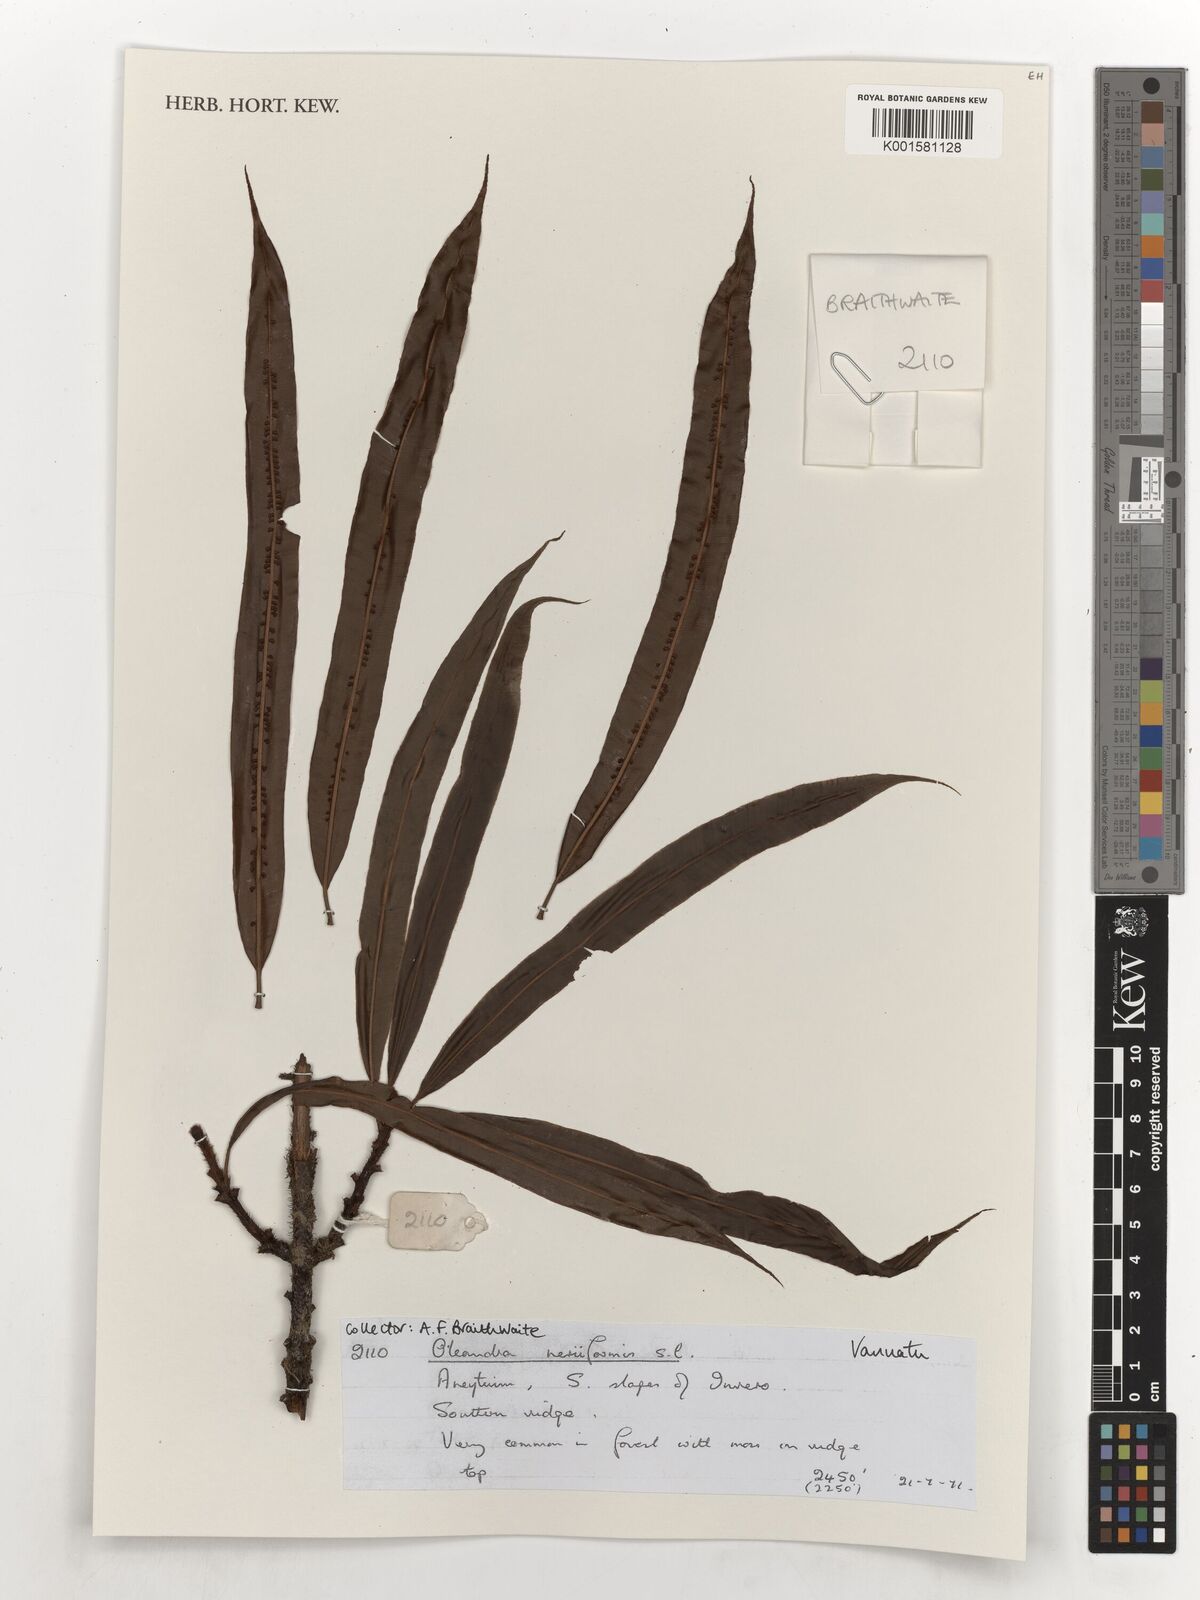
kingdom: Plantae
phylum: Tracheophyta
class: Polypodiopsida
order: Polypodiales
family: Oleandraceae
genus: Oleandra
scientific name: Oleandra musifolia
